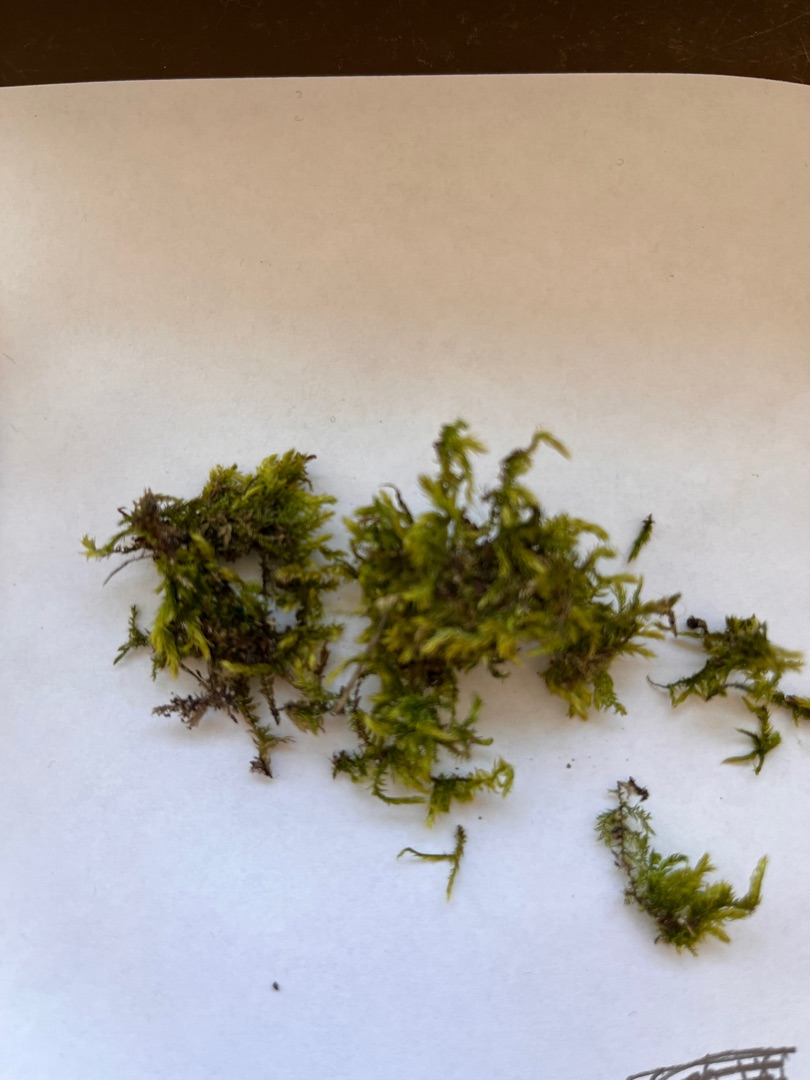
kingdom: Plantae
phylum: Bryophyta
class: Bryopsida
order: Hypnales
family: Brachytheciaceae
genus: Brachythecium
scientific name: Brachythecium rutabulum
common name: Almindelig kortkapsel
